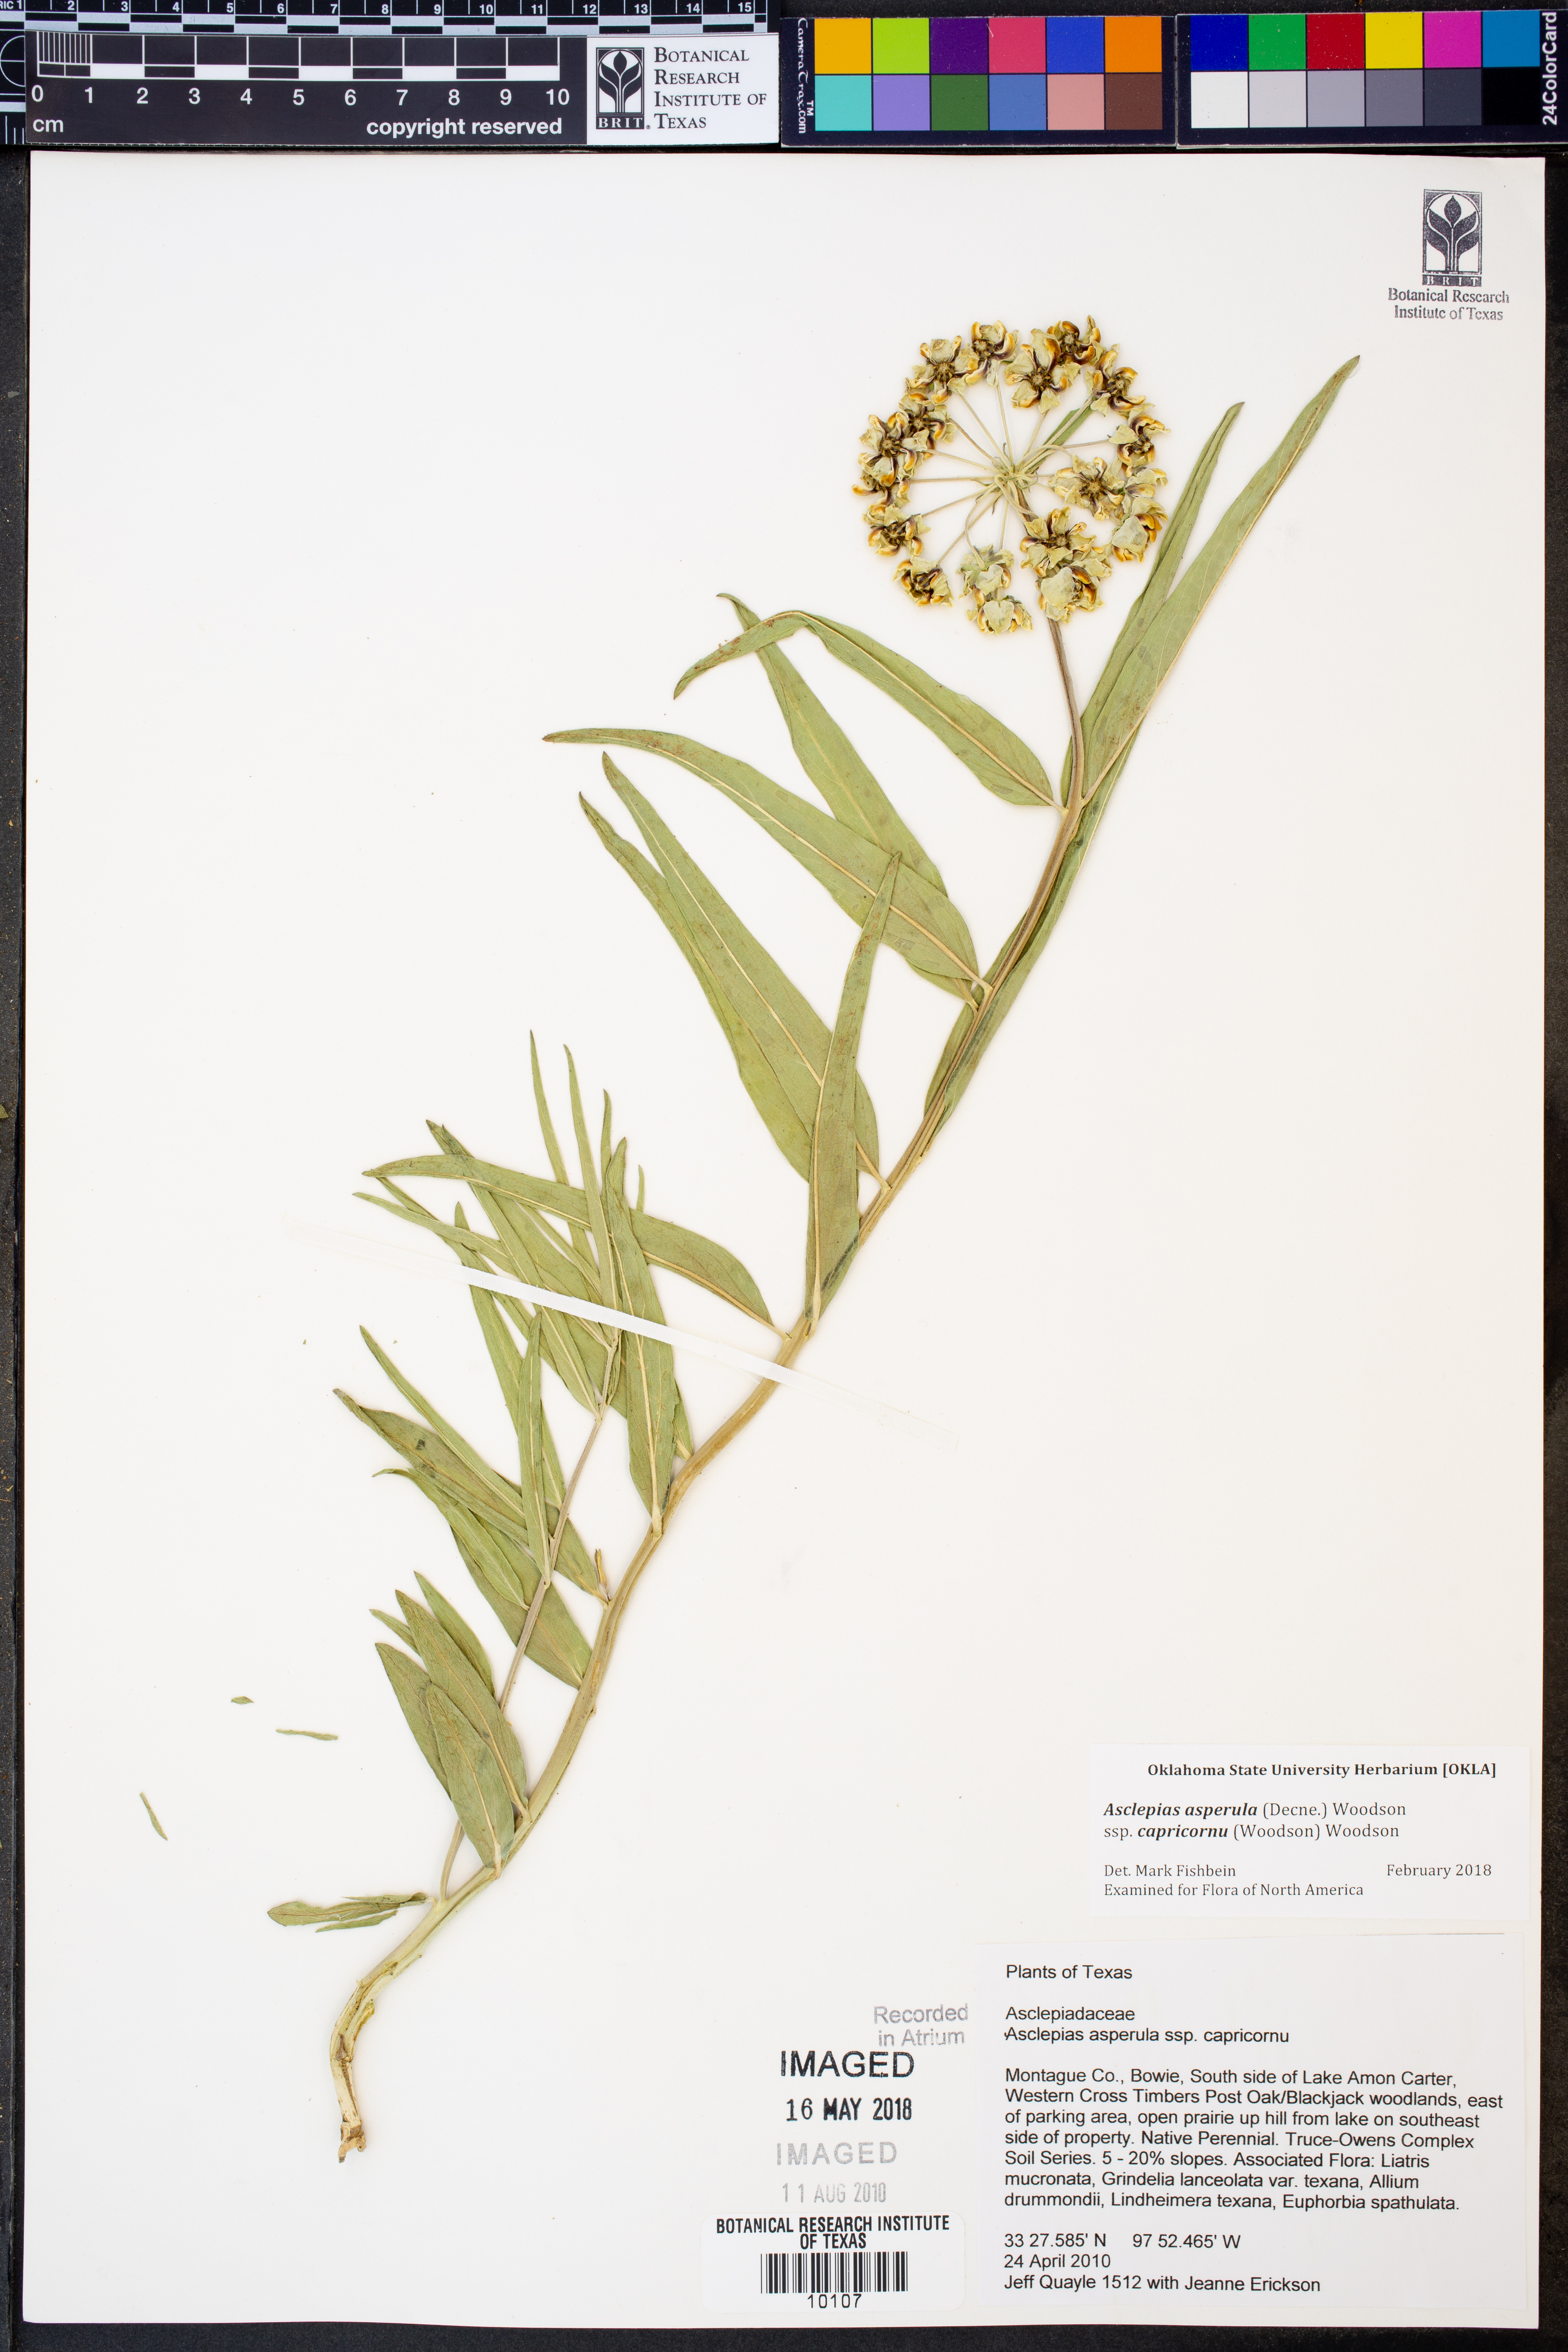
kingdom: Plantae
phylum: Tracheophyta
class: Magnoliopsida
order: Gentianales
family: Apocynaceae
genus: Asclepias
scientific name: Asclepias asperula
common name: Antelope horns
